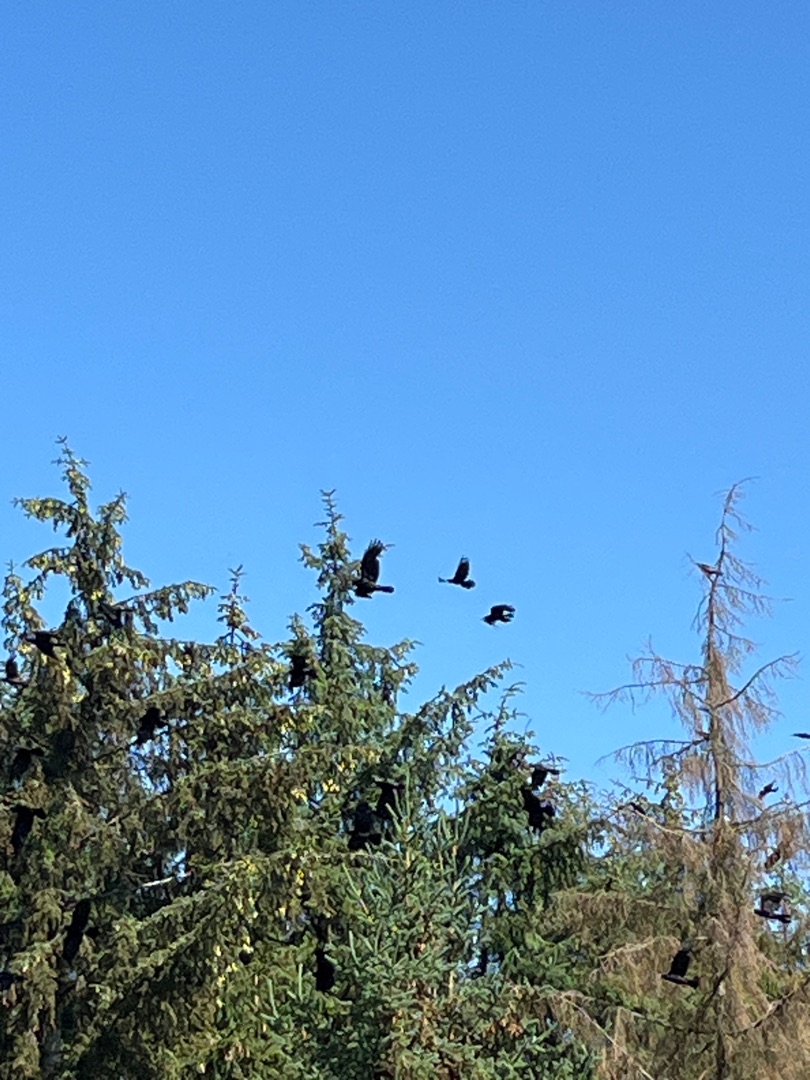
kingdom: Animalia
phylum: Chordata
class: Aves
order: Passeriformes
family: Corvidae
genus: Corvus
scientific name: Corvus frugilegus
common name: Råge
